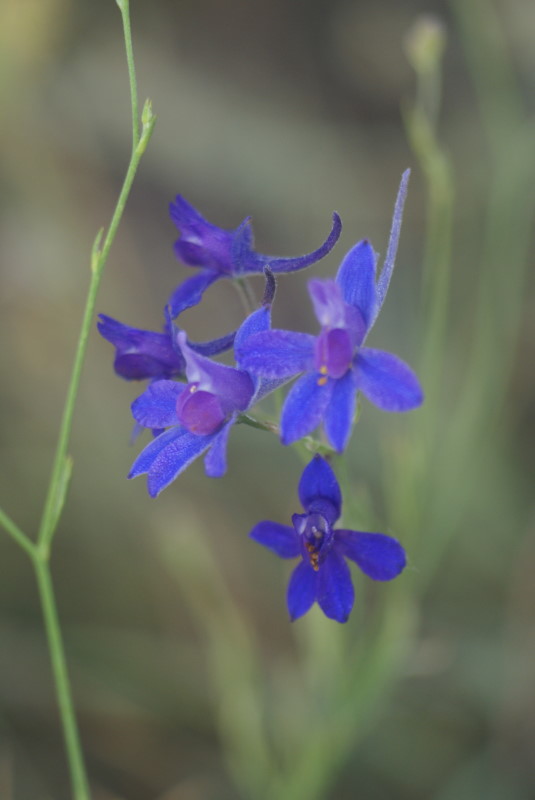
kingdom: Plantae
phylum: Tracheophyta
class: Magnoliopsida
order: Ranunculales
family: Ranunculaceae
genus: Delphinium
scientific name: Delphinium consolida
